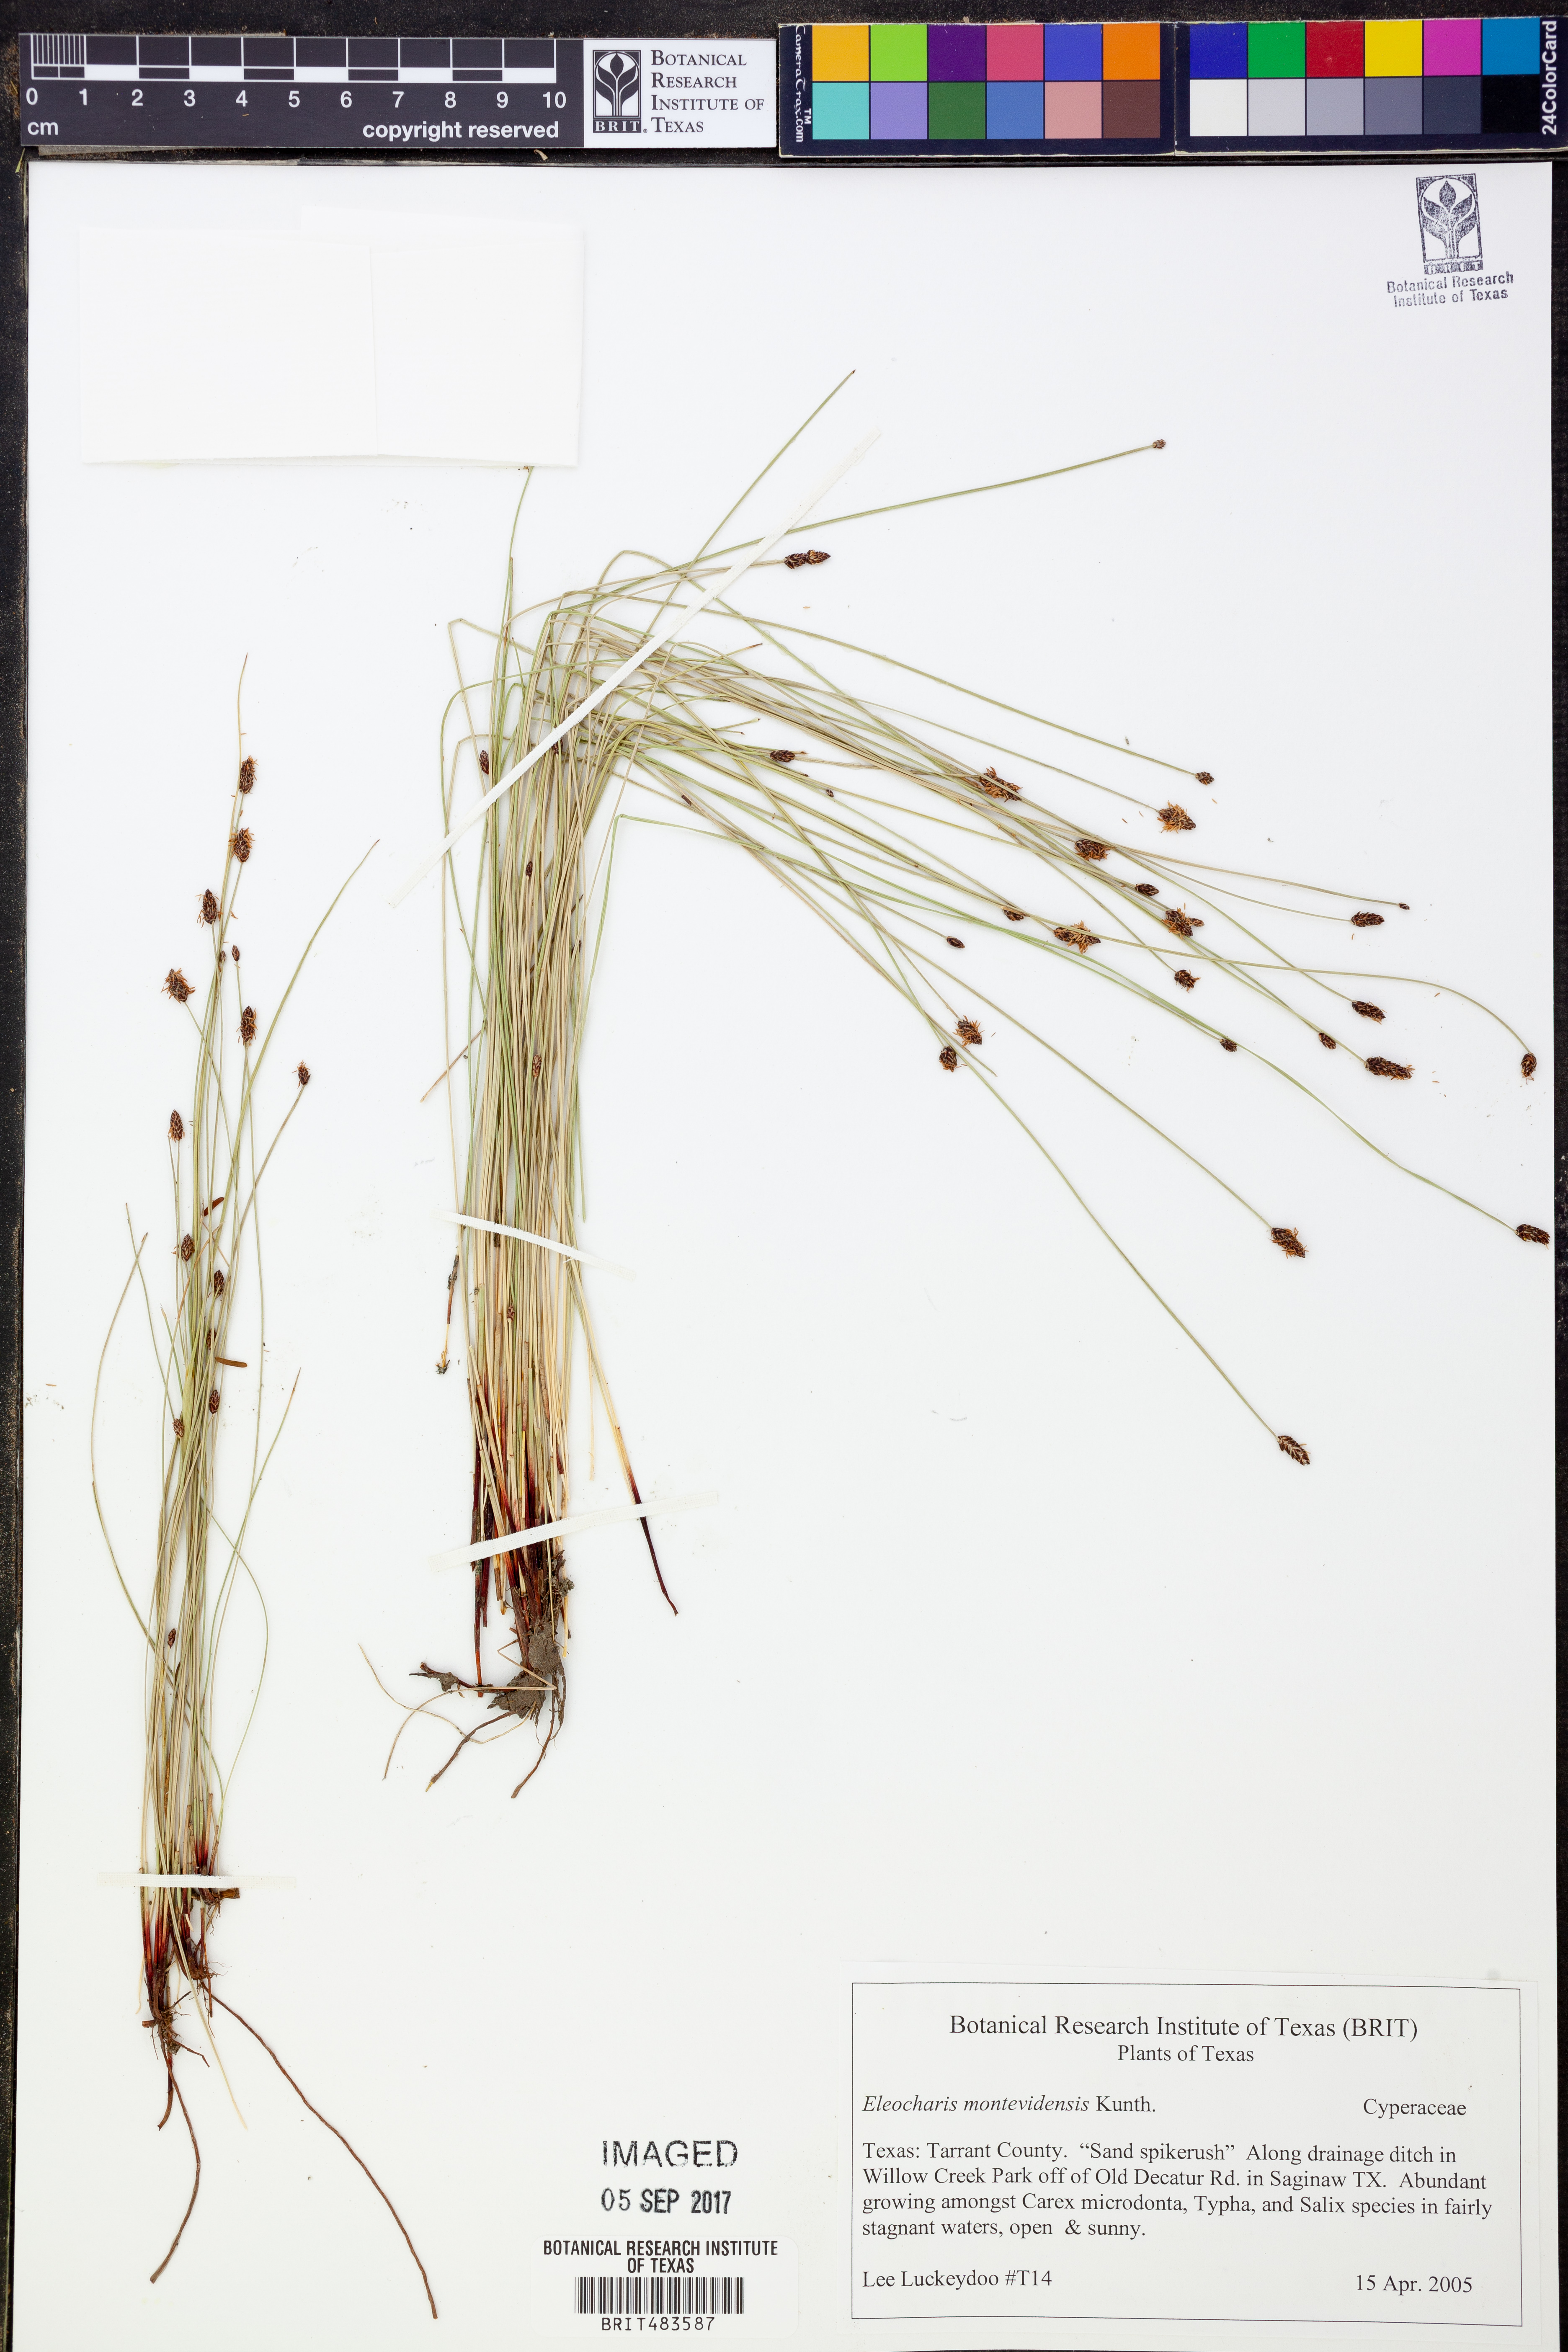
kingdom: Plantae
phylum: Tracheophyta
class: Liliopsida
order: Poales
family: Cyperaceae
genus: Eleocharis
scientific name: Eleocharis montevidensis
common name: Sand spike-rush
